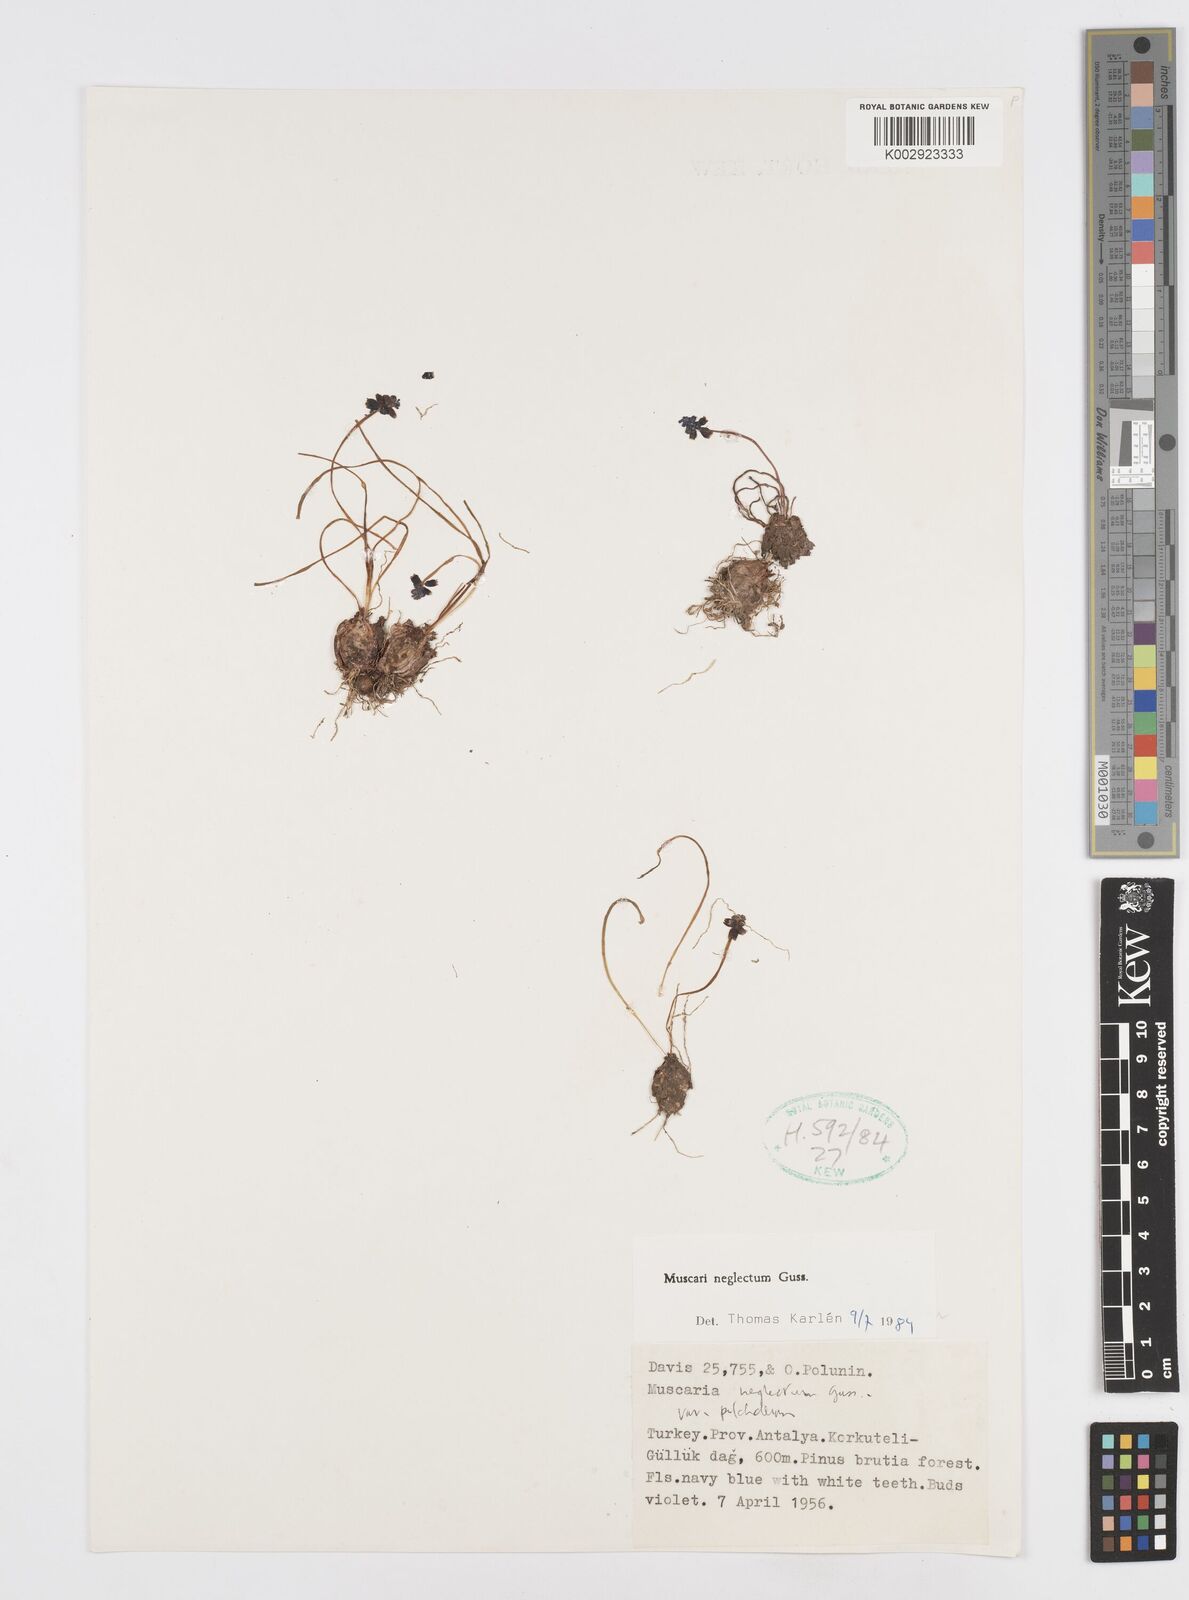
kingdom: Plantae
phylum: Tracheophyta
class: Liliopsida
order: Asparagales
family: Asparagaceae
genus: Muscari
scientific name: Muscari neglectum
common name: Grape-hyacinth
